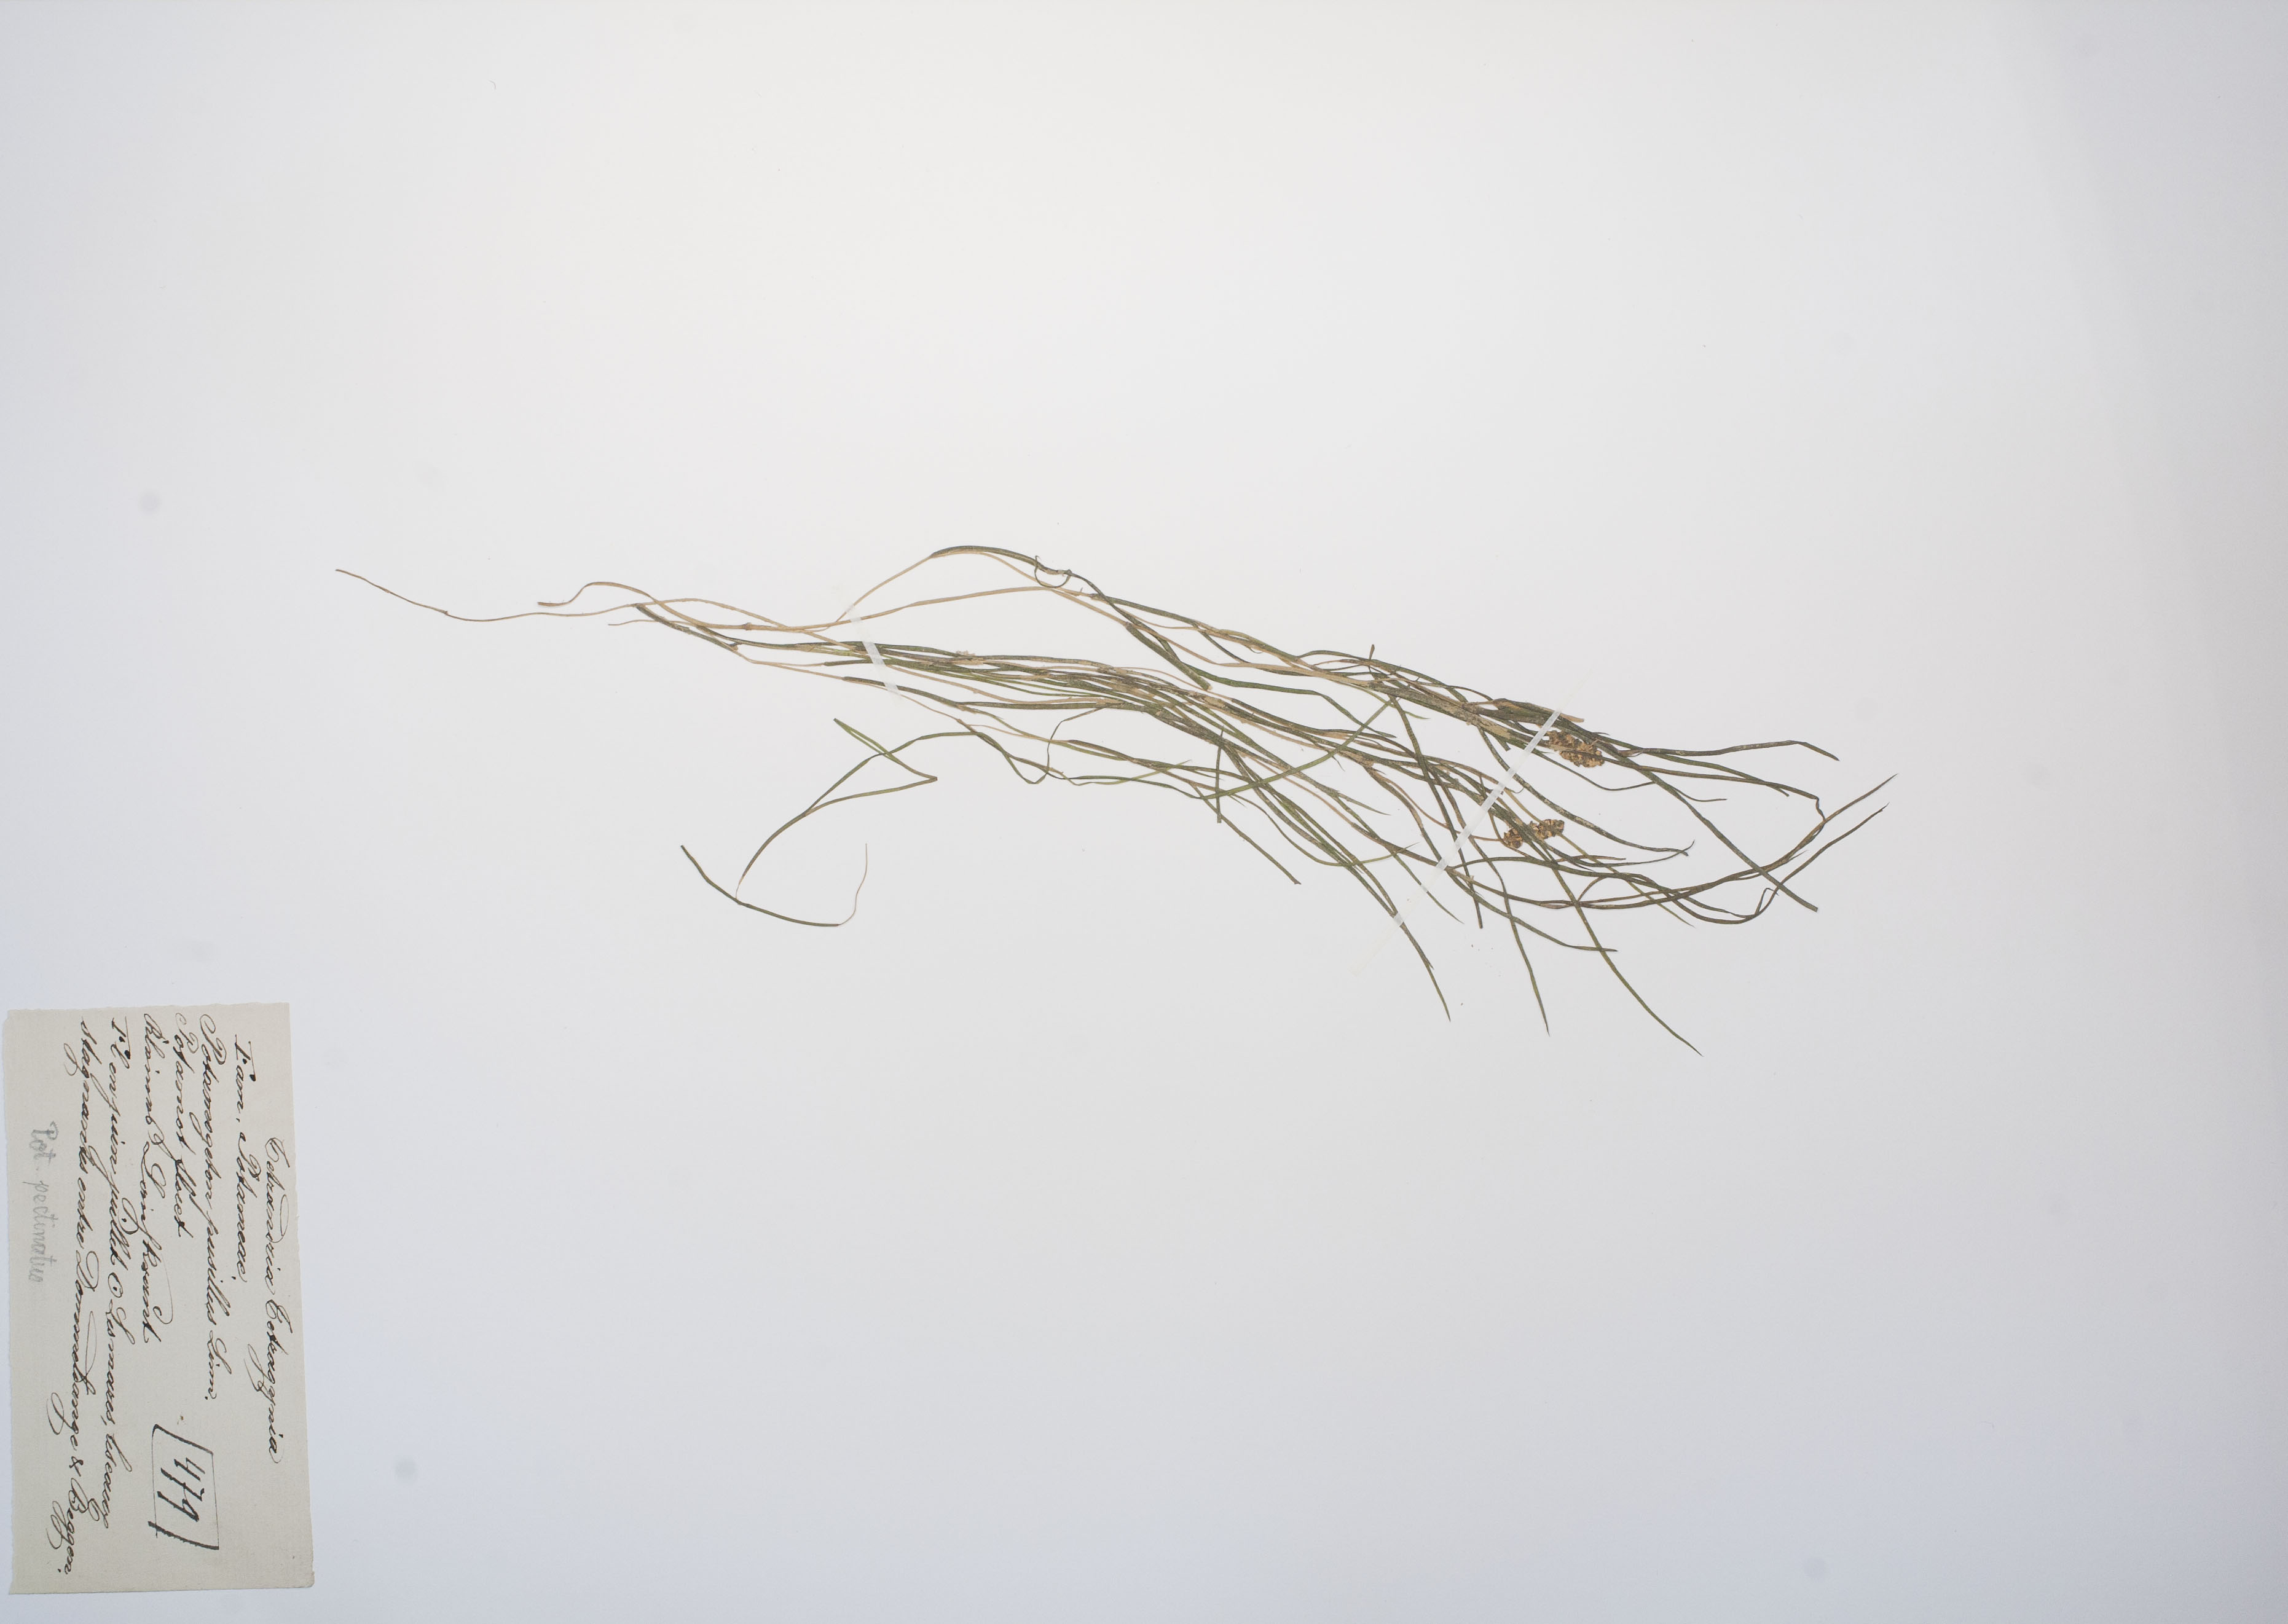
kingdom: Plantae
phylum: Tracheophyta
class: Liliopsida
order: Alismatales
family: Potamogetonaceae
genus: Stuckenia
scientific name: Stuckenia pectinata
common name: Sago pondweed
